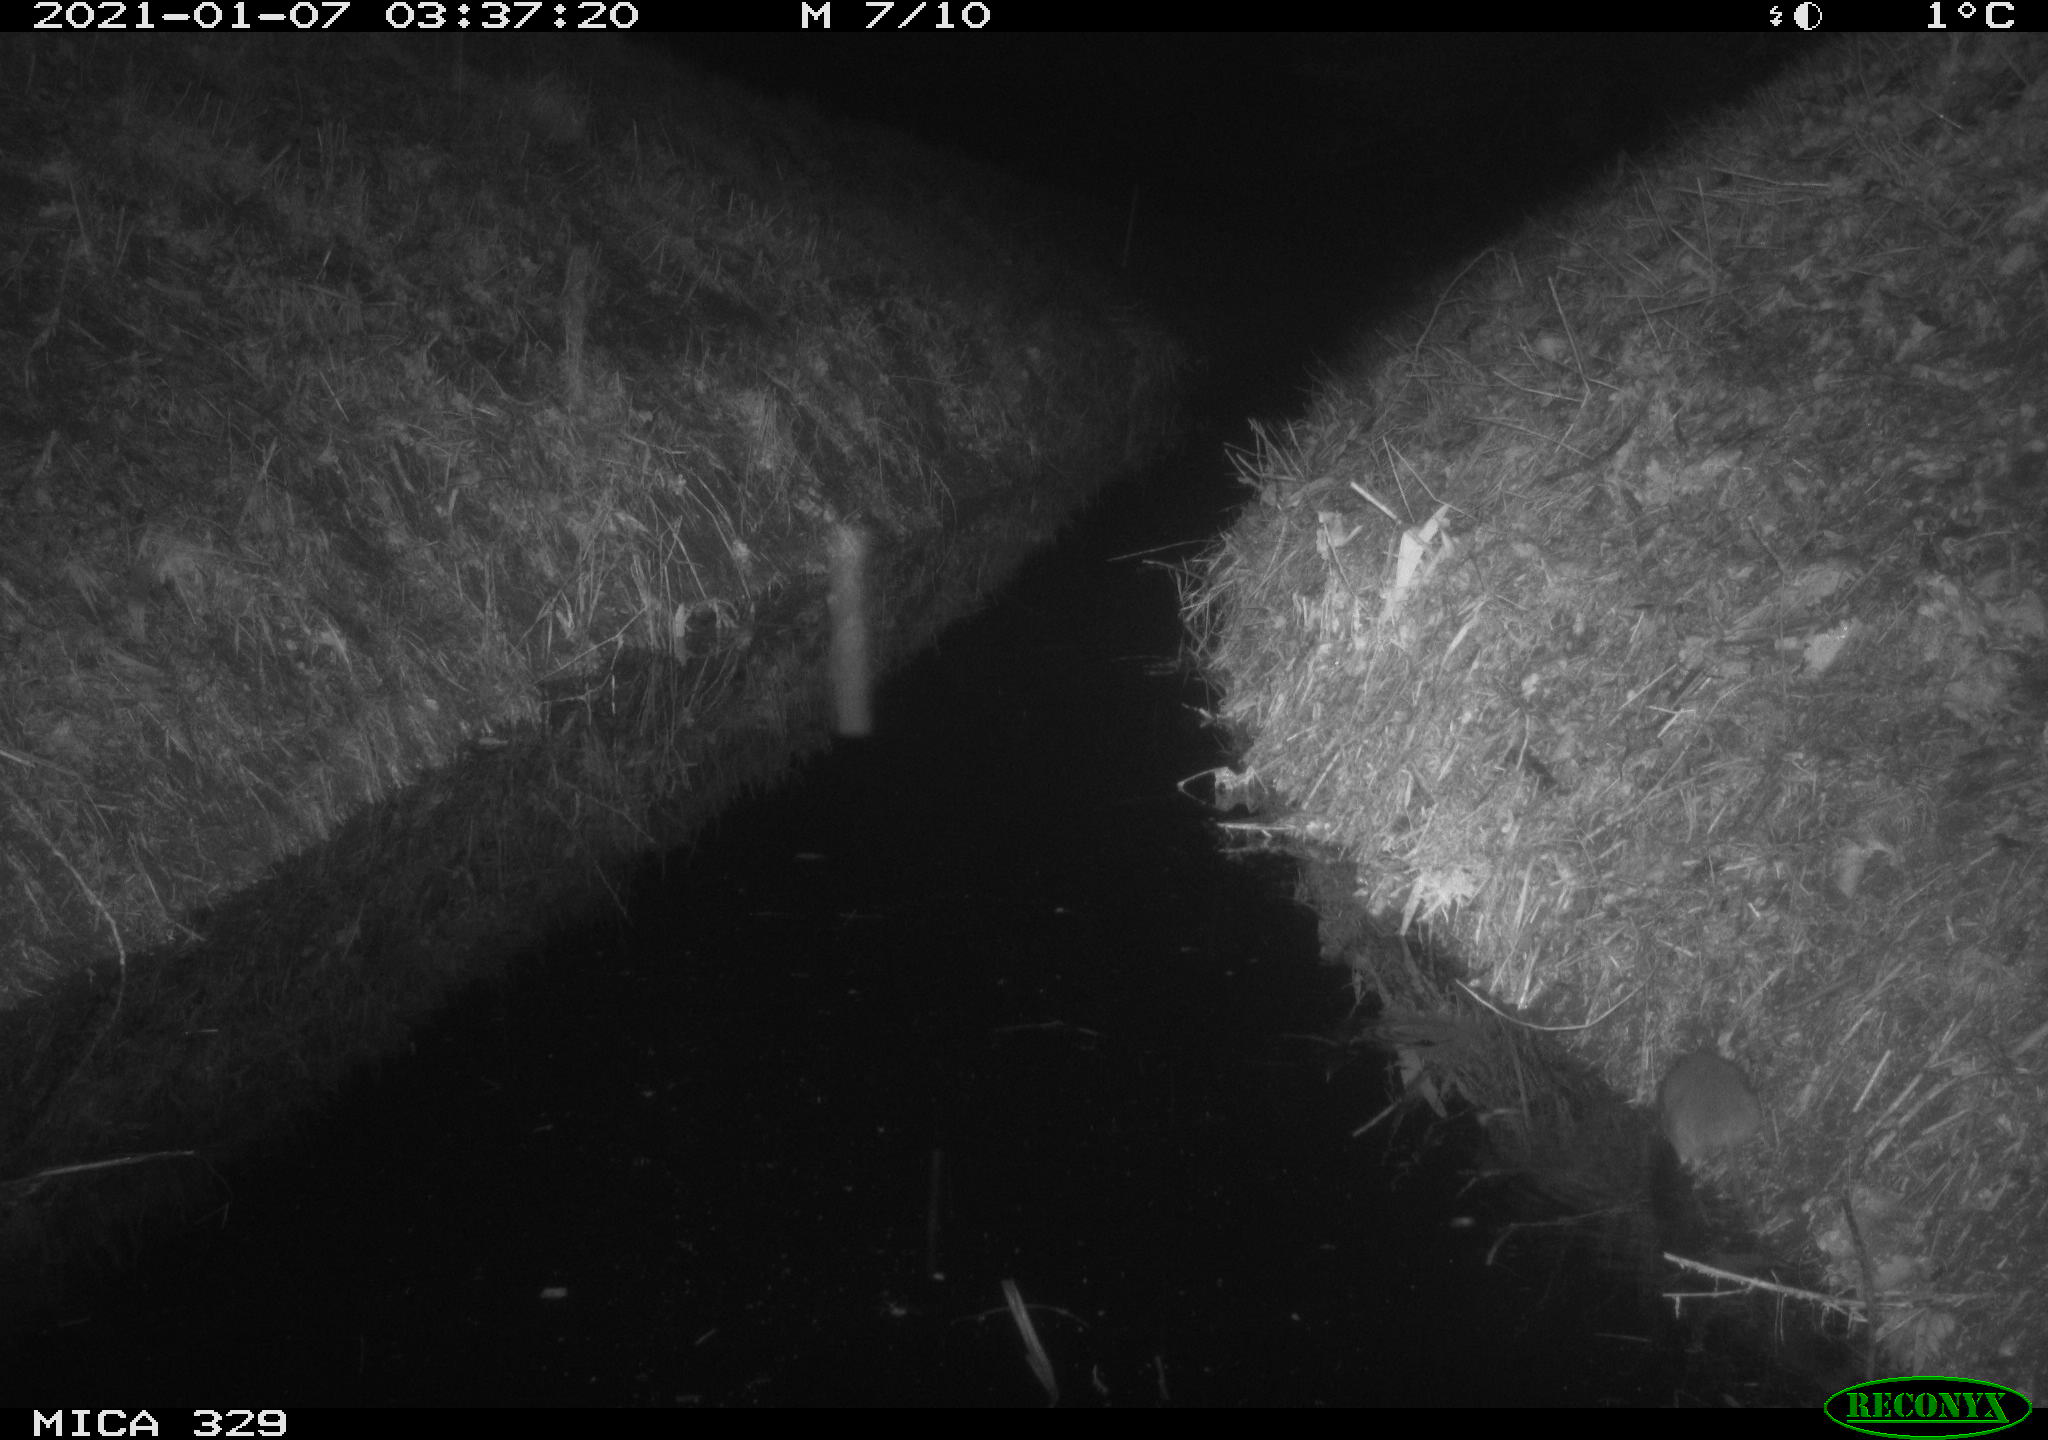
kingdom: Animalia
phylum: Chordata
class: Mammalia
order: Rodentia
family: Muridae
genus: Rattus
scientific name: Rattus norvegicus
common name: Brown rat
